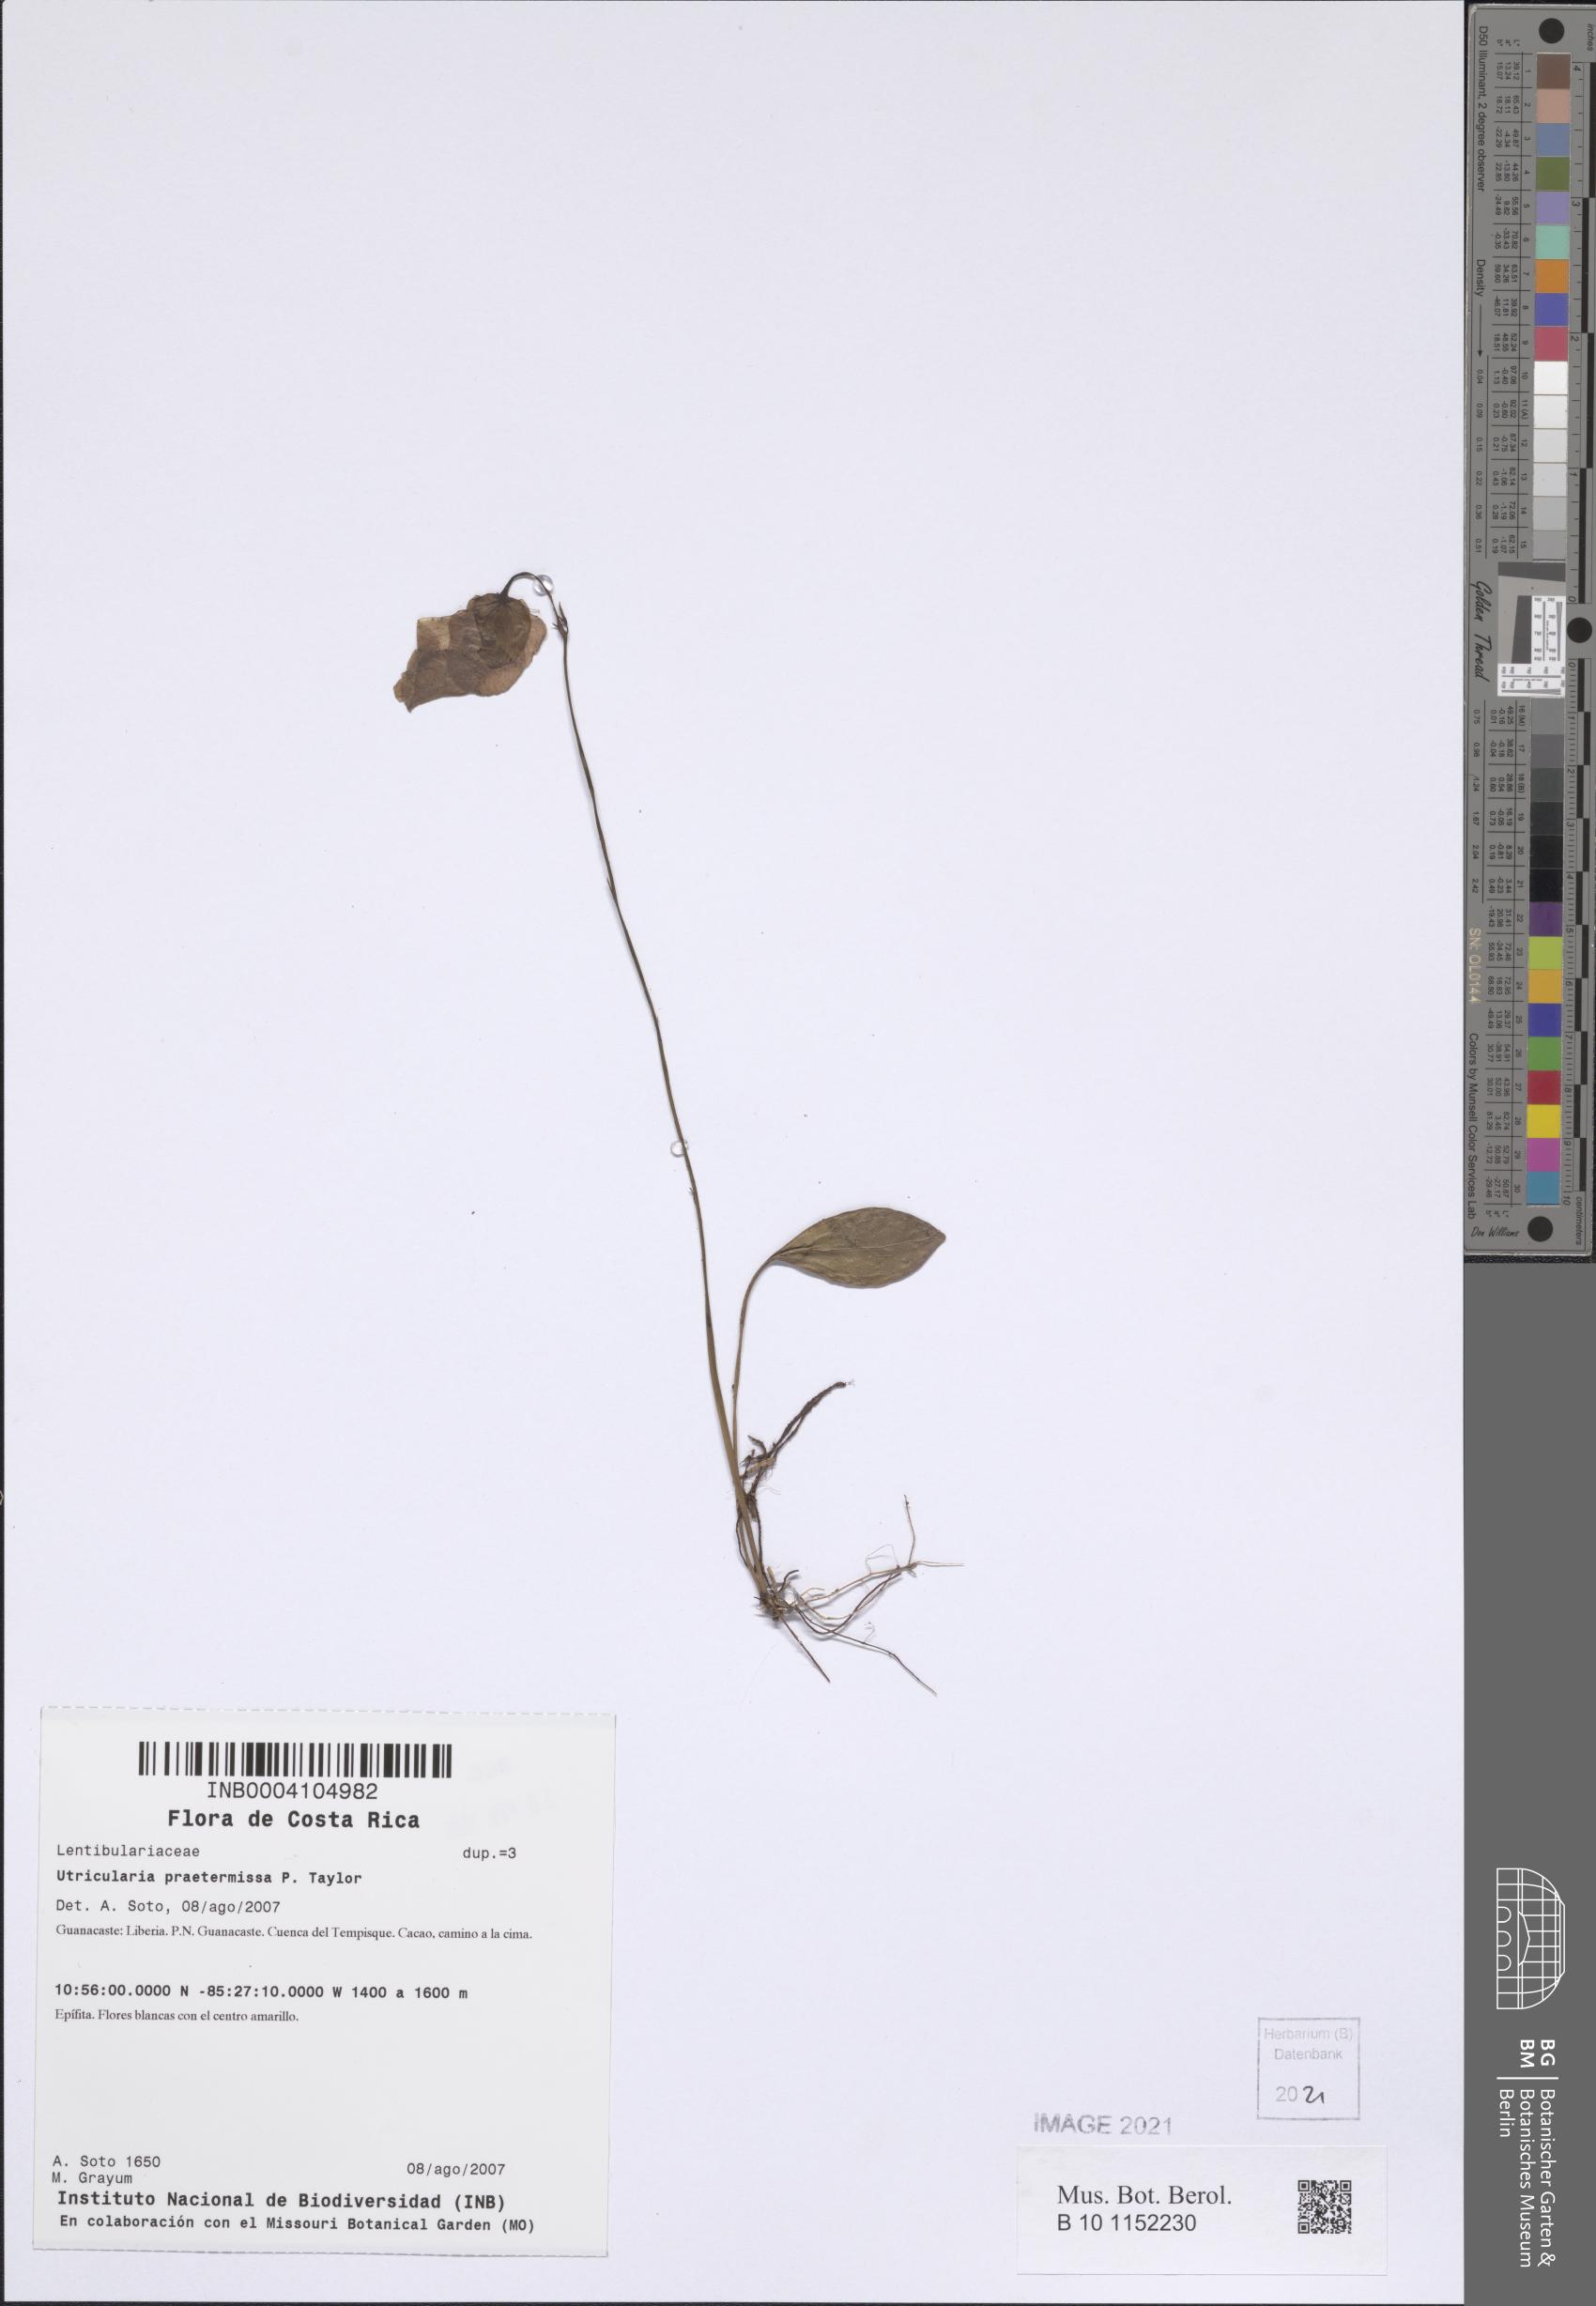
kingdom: Plantae
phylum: Tracheophyta
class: Magnoliopsida
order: Lamiales
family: Lentibulariaceae
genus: Utricularia
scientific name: Utricularia praetermissa
